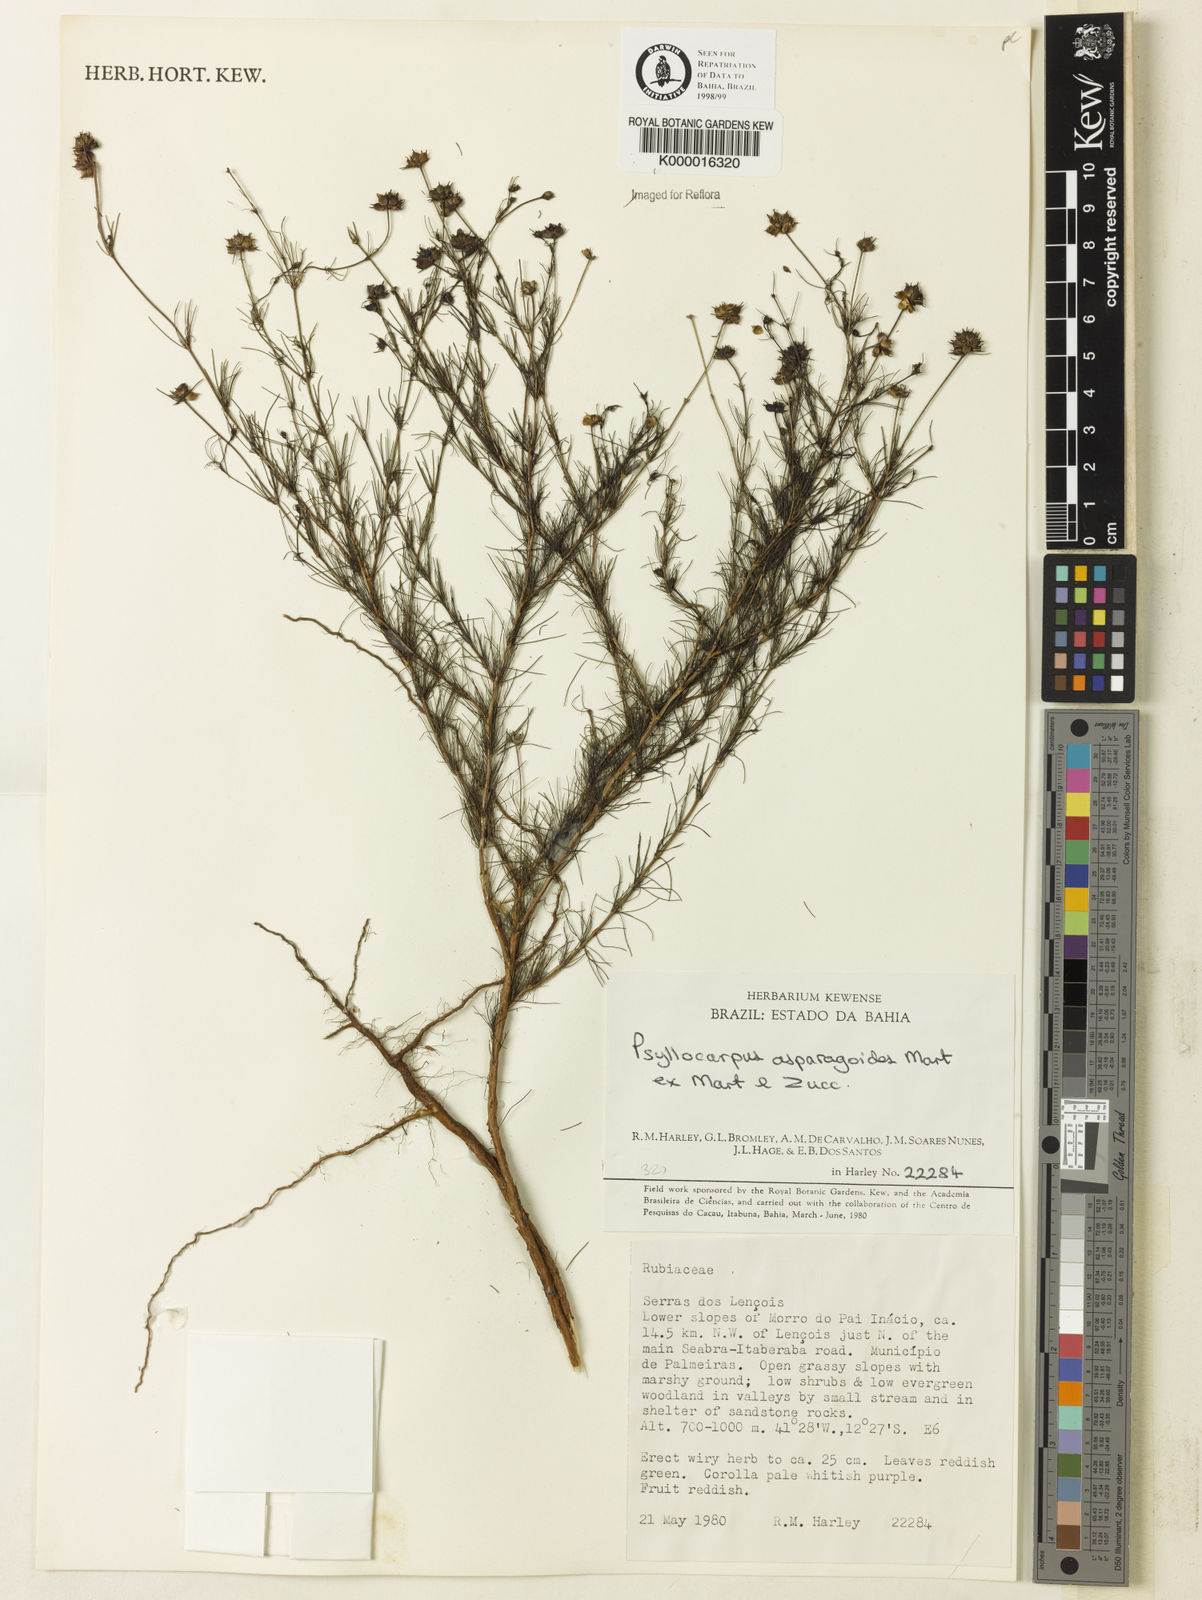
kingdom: Plantae
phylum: Tracheophyta
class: Magnoliopsida
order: Gentianales
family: Rubiaceae
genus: Psyllocarpus
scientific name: Psyllocarpus asparagoides
